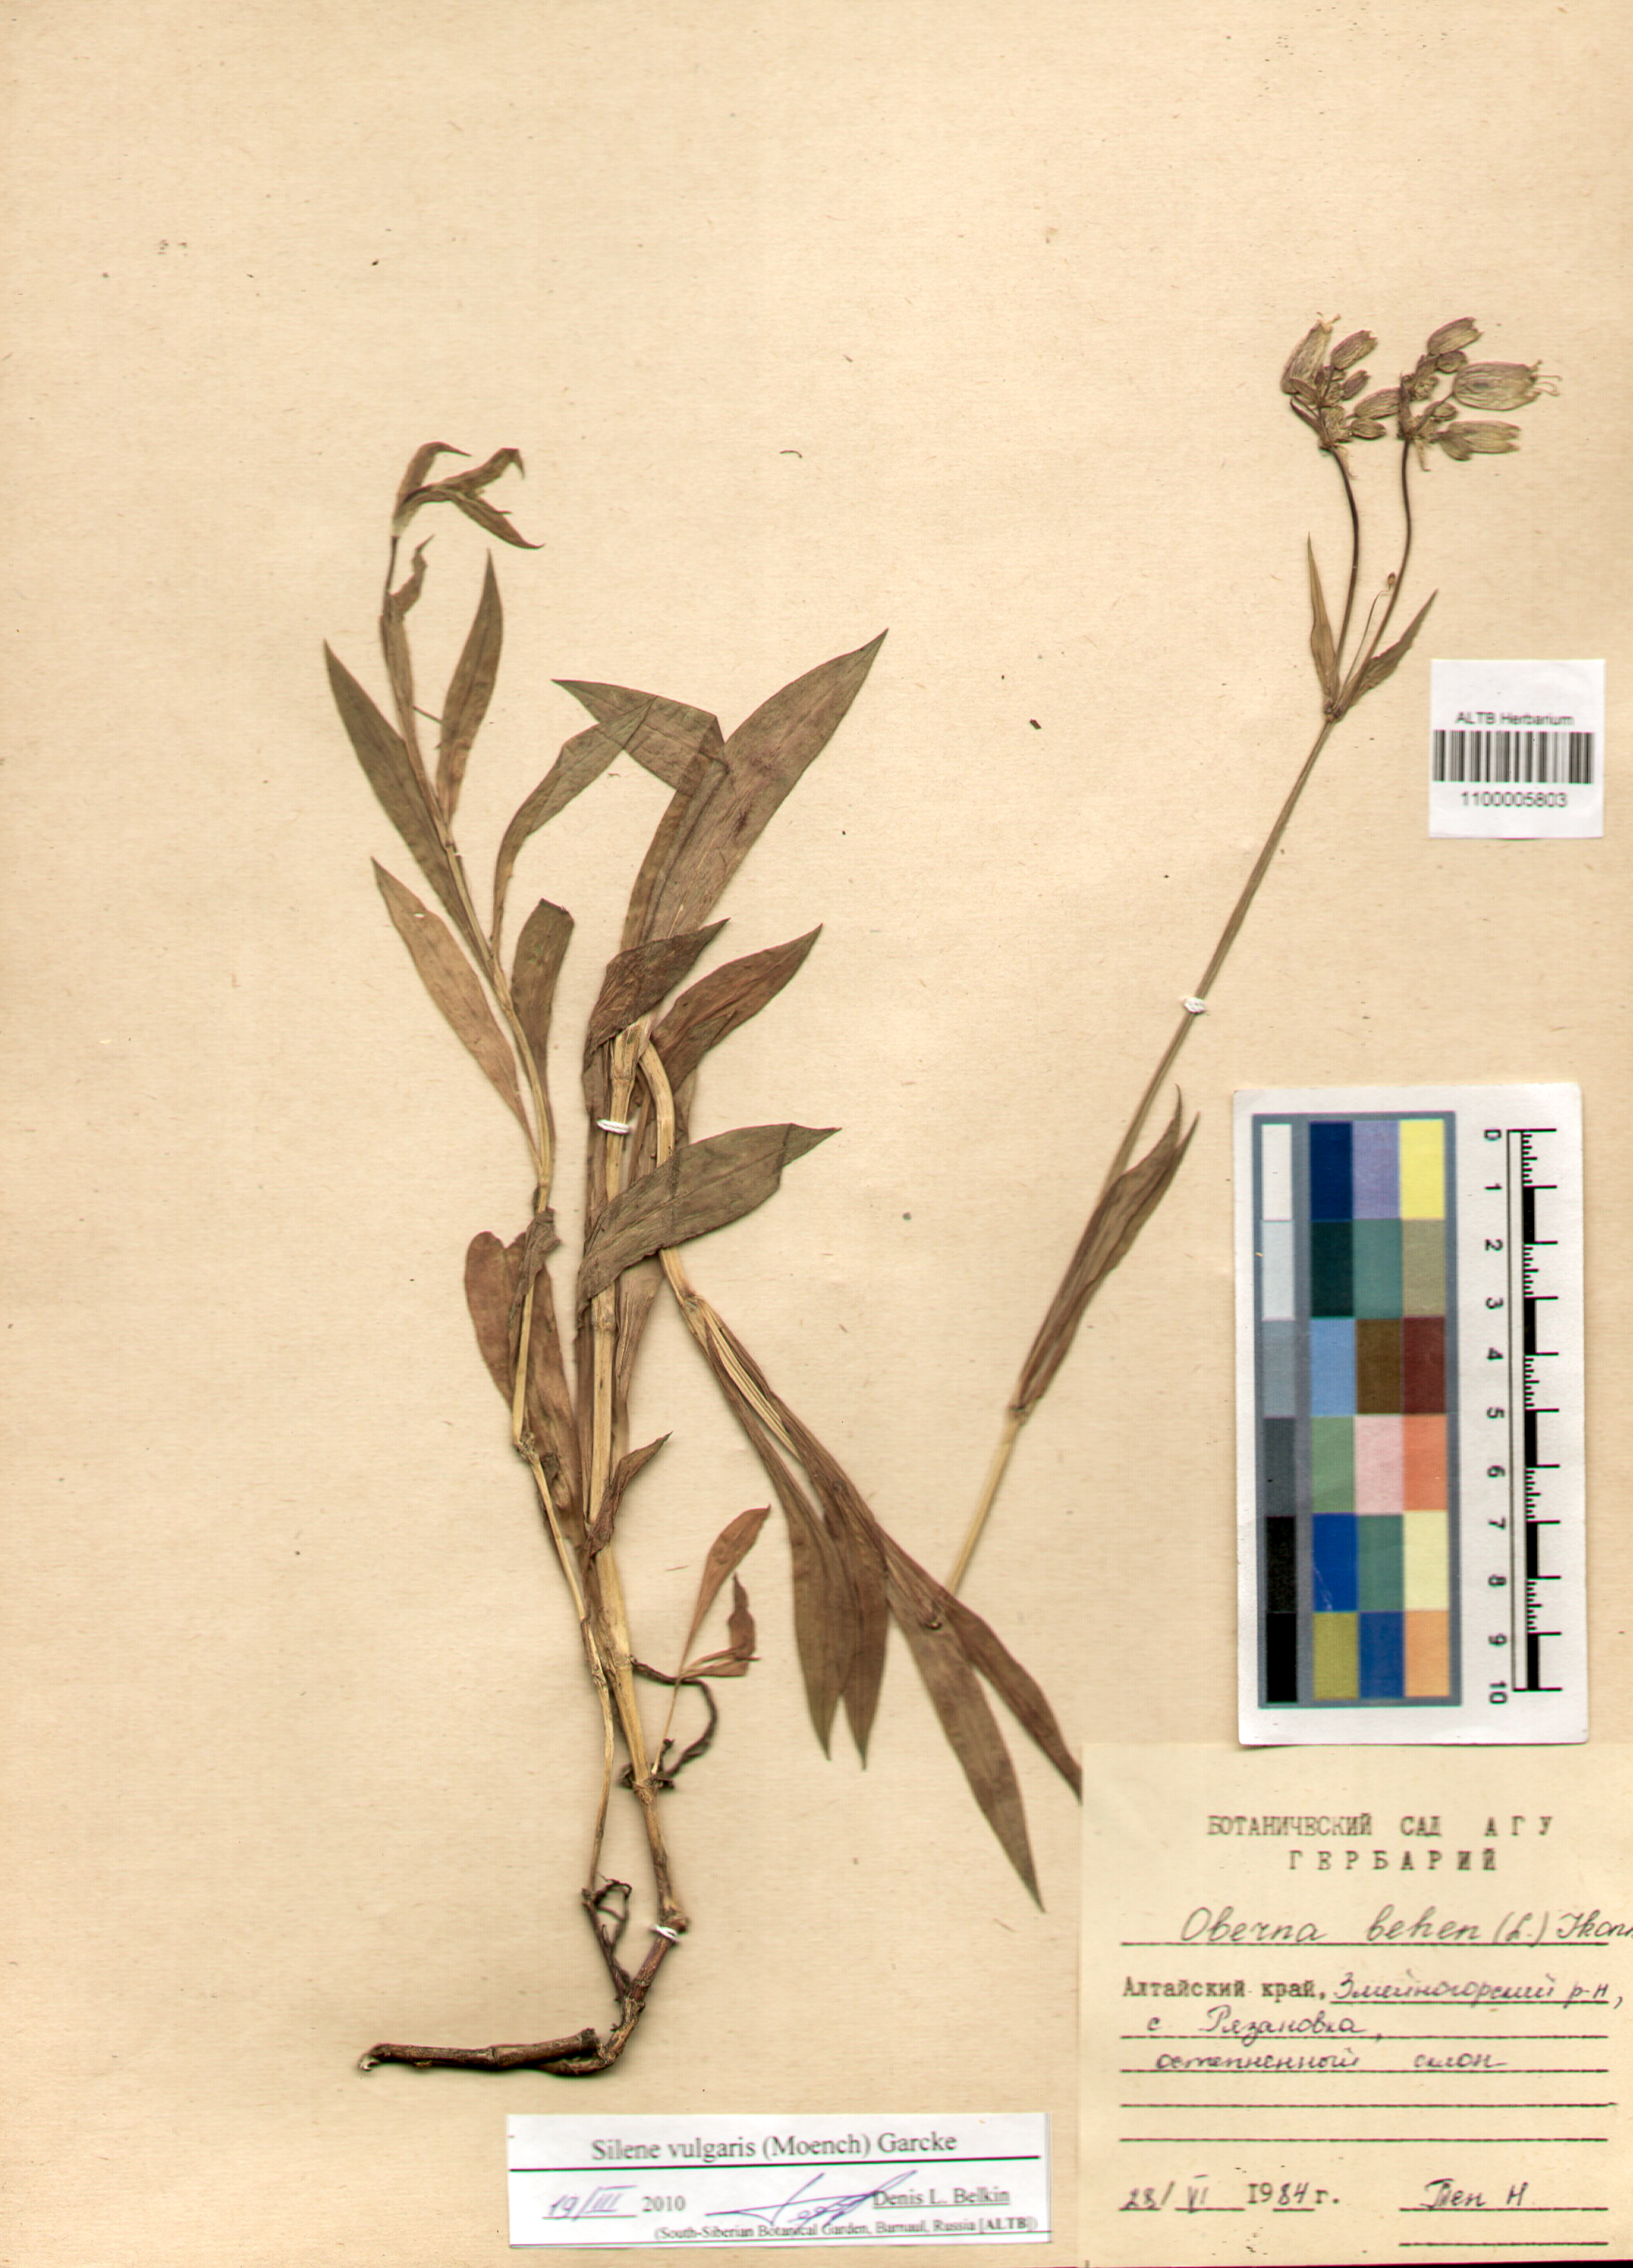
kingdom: Plantae
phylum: Tracheophyta
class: Magnoliopsida
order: Caryophyllales
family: Caryophyllaceae
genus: Silene
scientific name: Silene vulgaris
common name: Bladder campion
